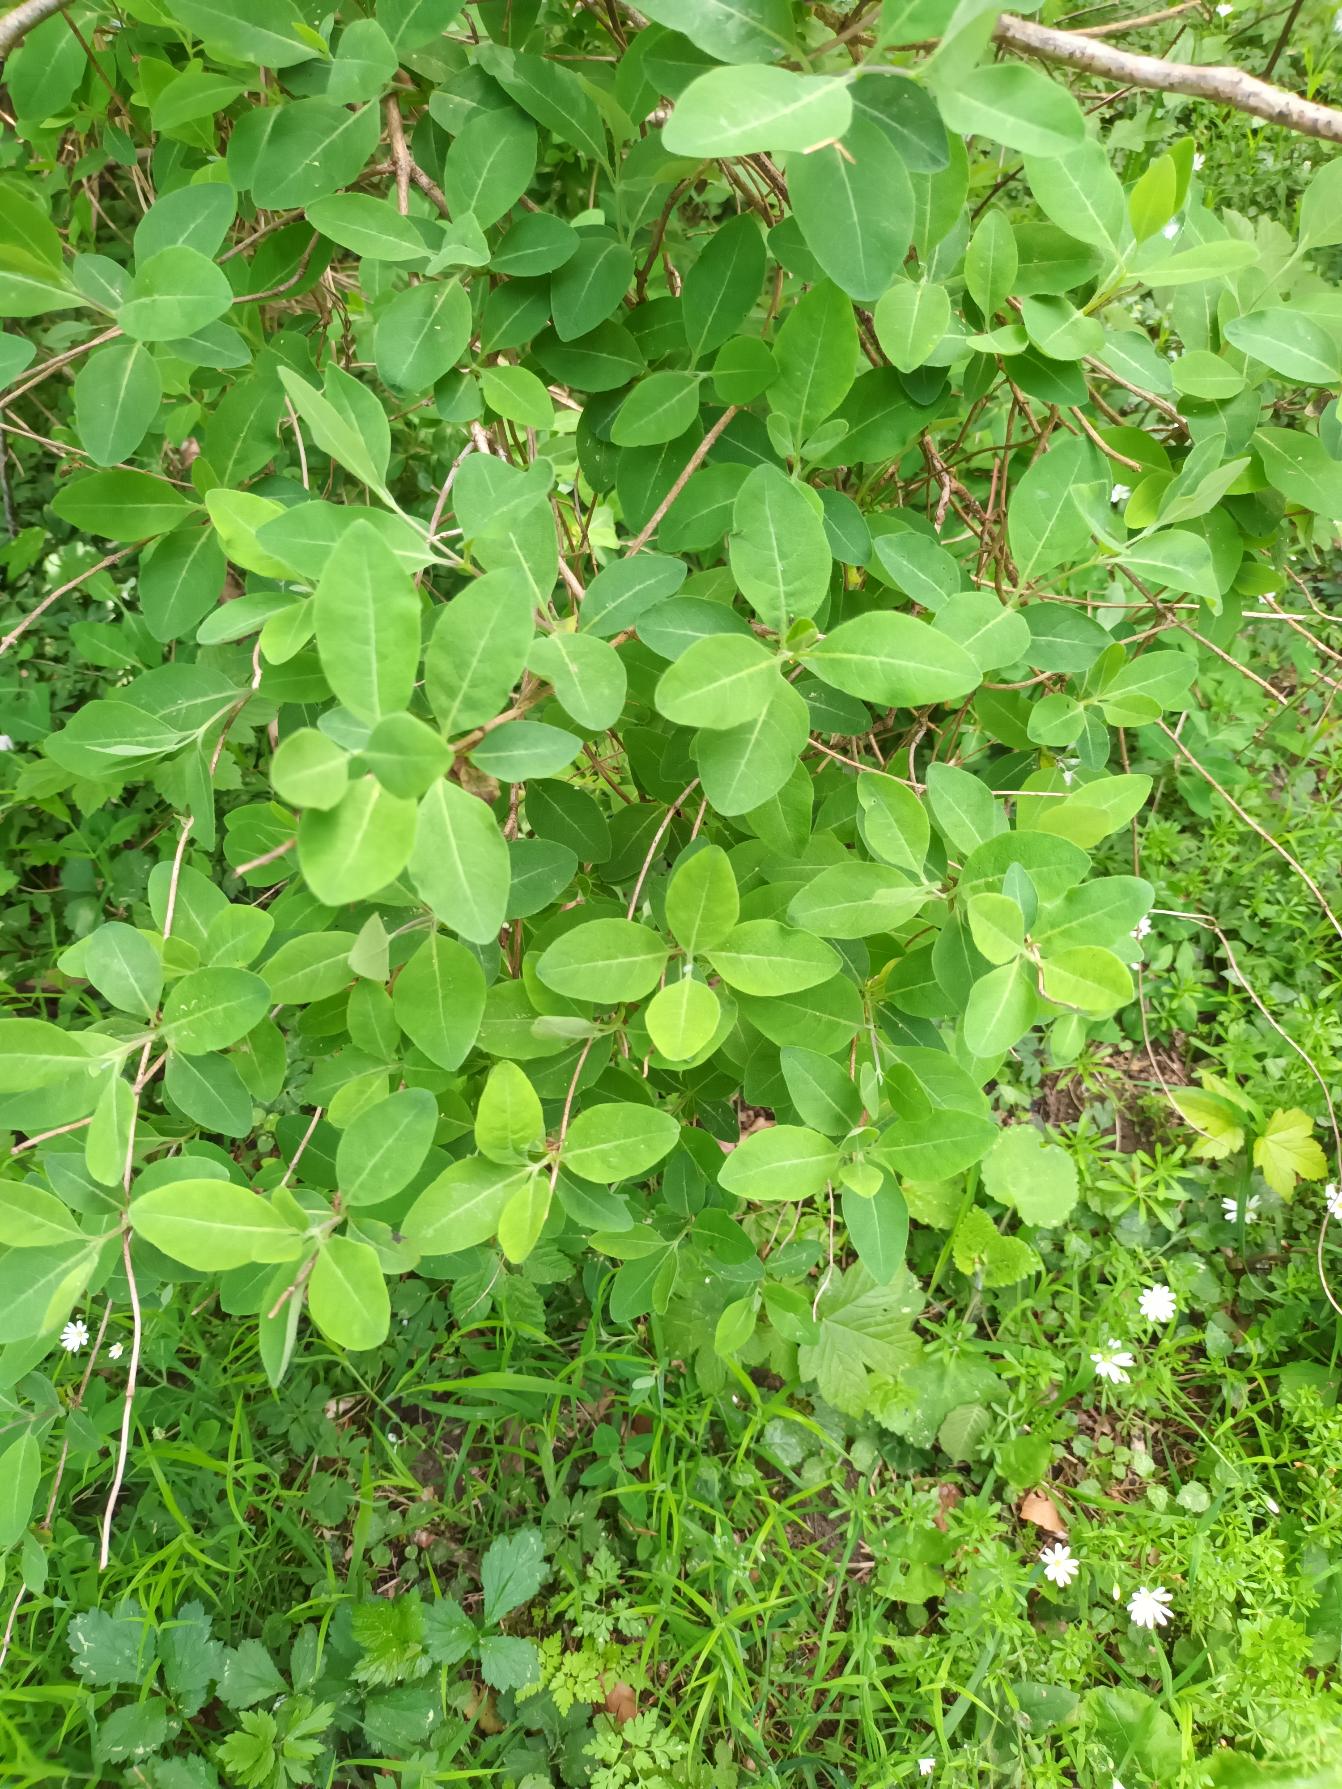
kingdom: Plantae
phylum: Tracheophyta
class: Magnoliopsida
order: Dipsacales
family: Caprifoliaceae
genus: Lonicera
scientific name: Lonicera periclymenum
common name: Almindelig gedeblad
